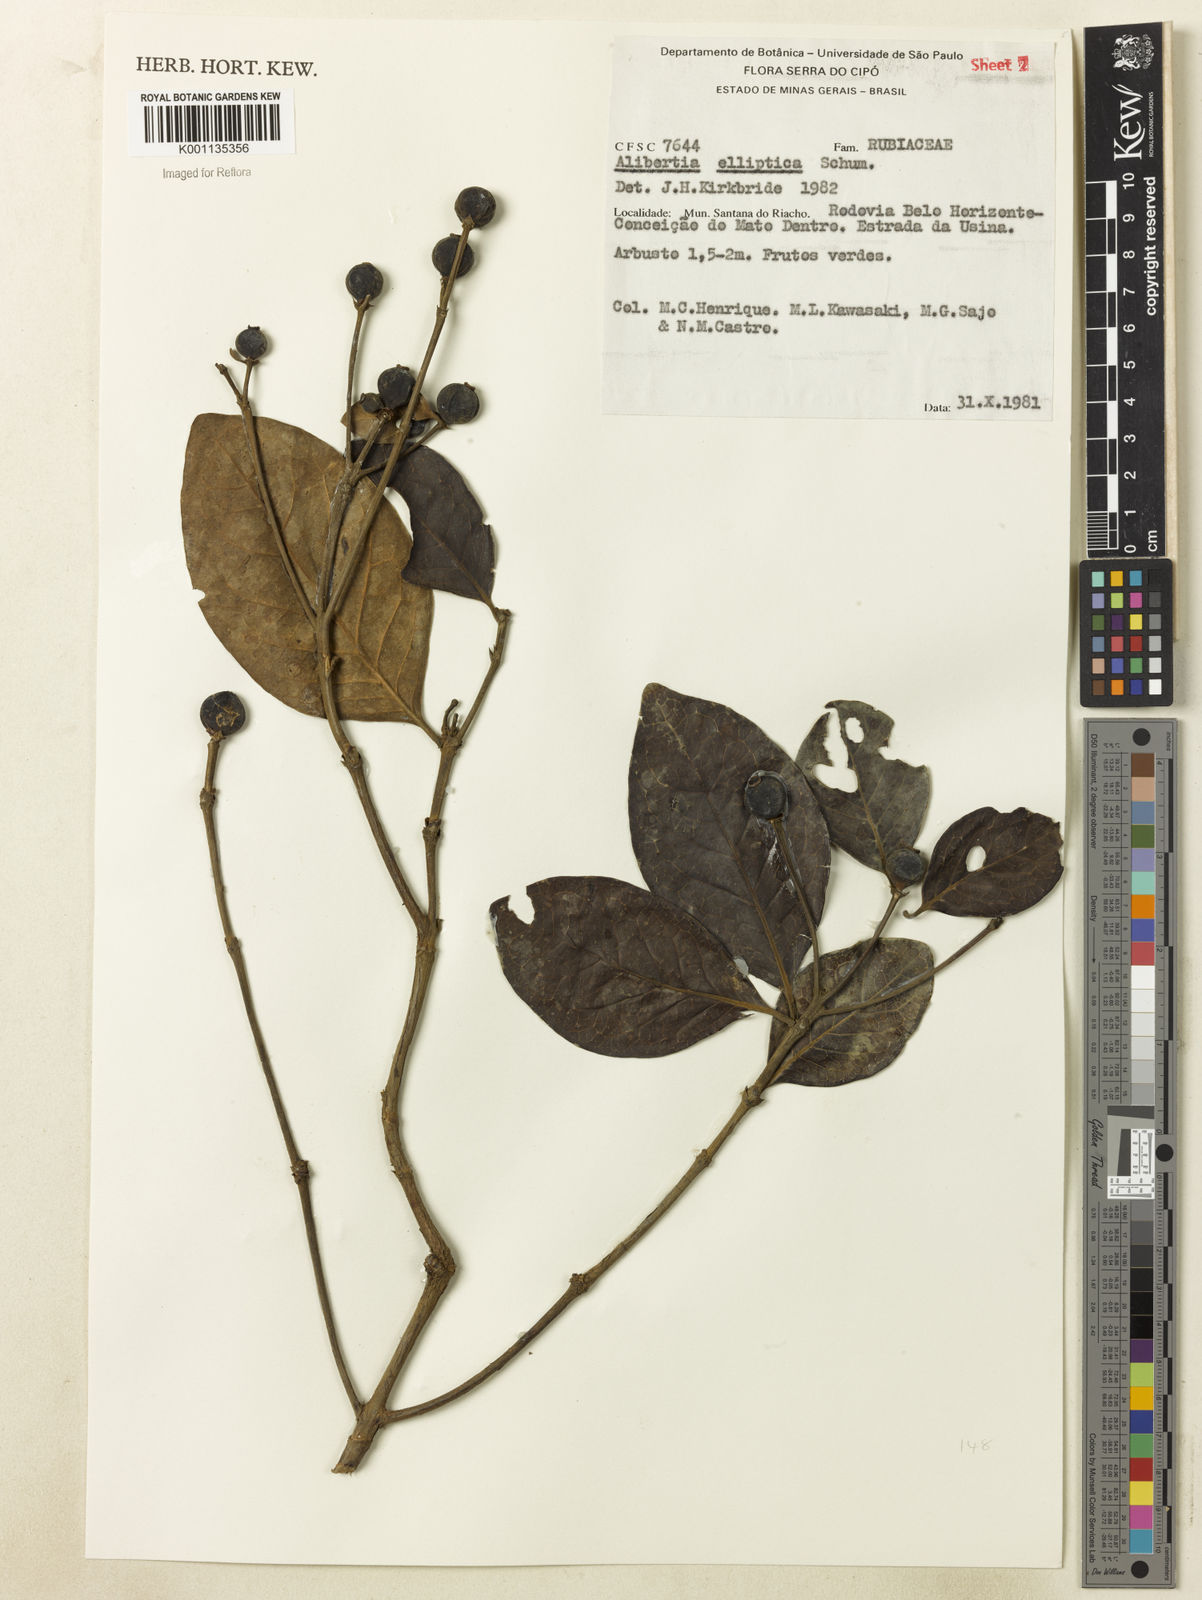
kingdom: Plantae
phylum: Tracheophyta
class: Magnoliopsida
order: Gentianales
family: Rubiaceae
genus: Cordiera
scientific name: Cordiera elliptica
